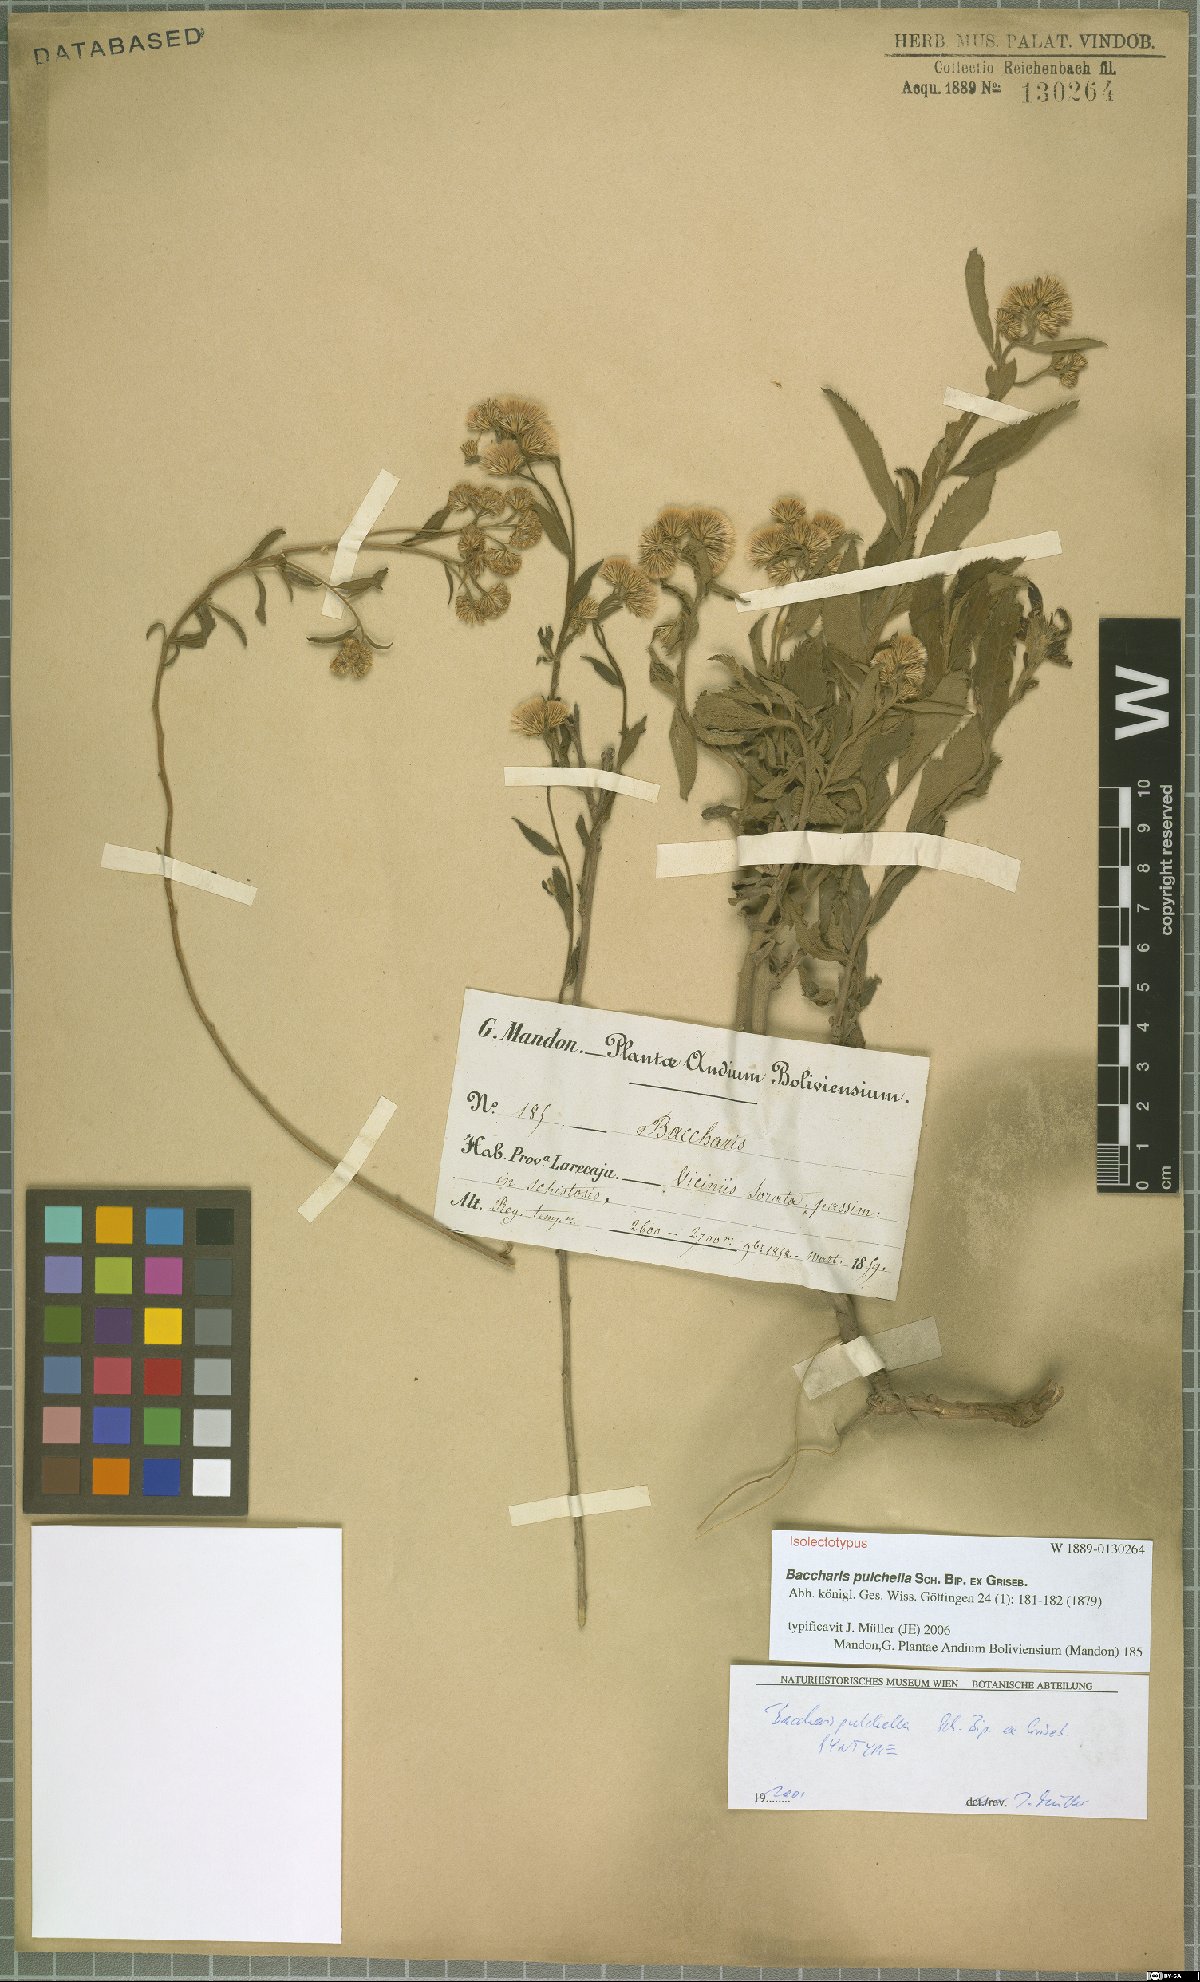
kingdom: Plantae
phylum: Tracheophyta
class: Magnoliopsida
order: Asterales
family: Asteraceae
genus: Baccharis
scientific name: Baccharis pulchella
